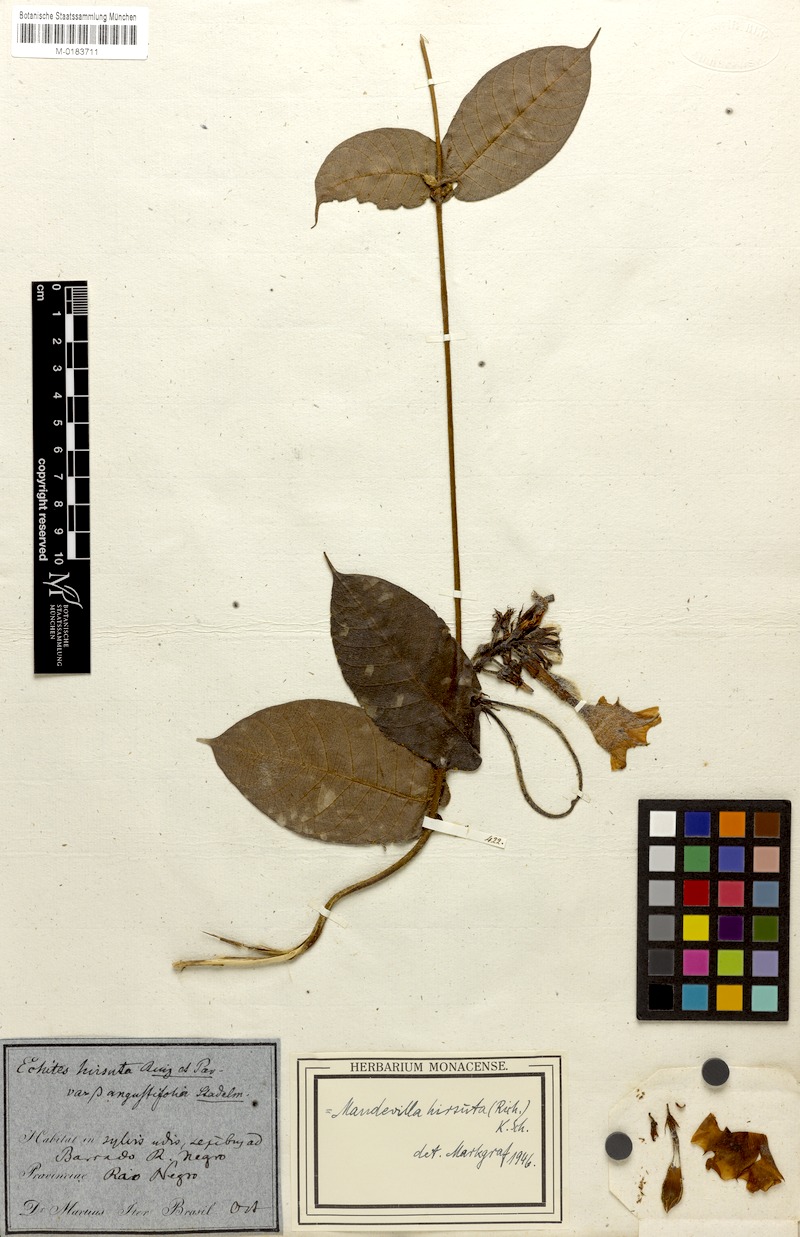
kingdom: Plantae
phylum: Tracheophyta
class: Magnoliopsida
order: Gentianales
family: Apocynaceae
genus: Mandevilla
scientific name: Mandevilla hirsuta
